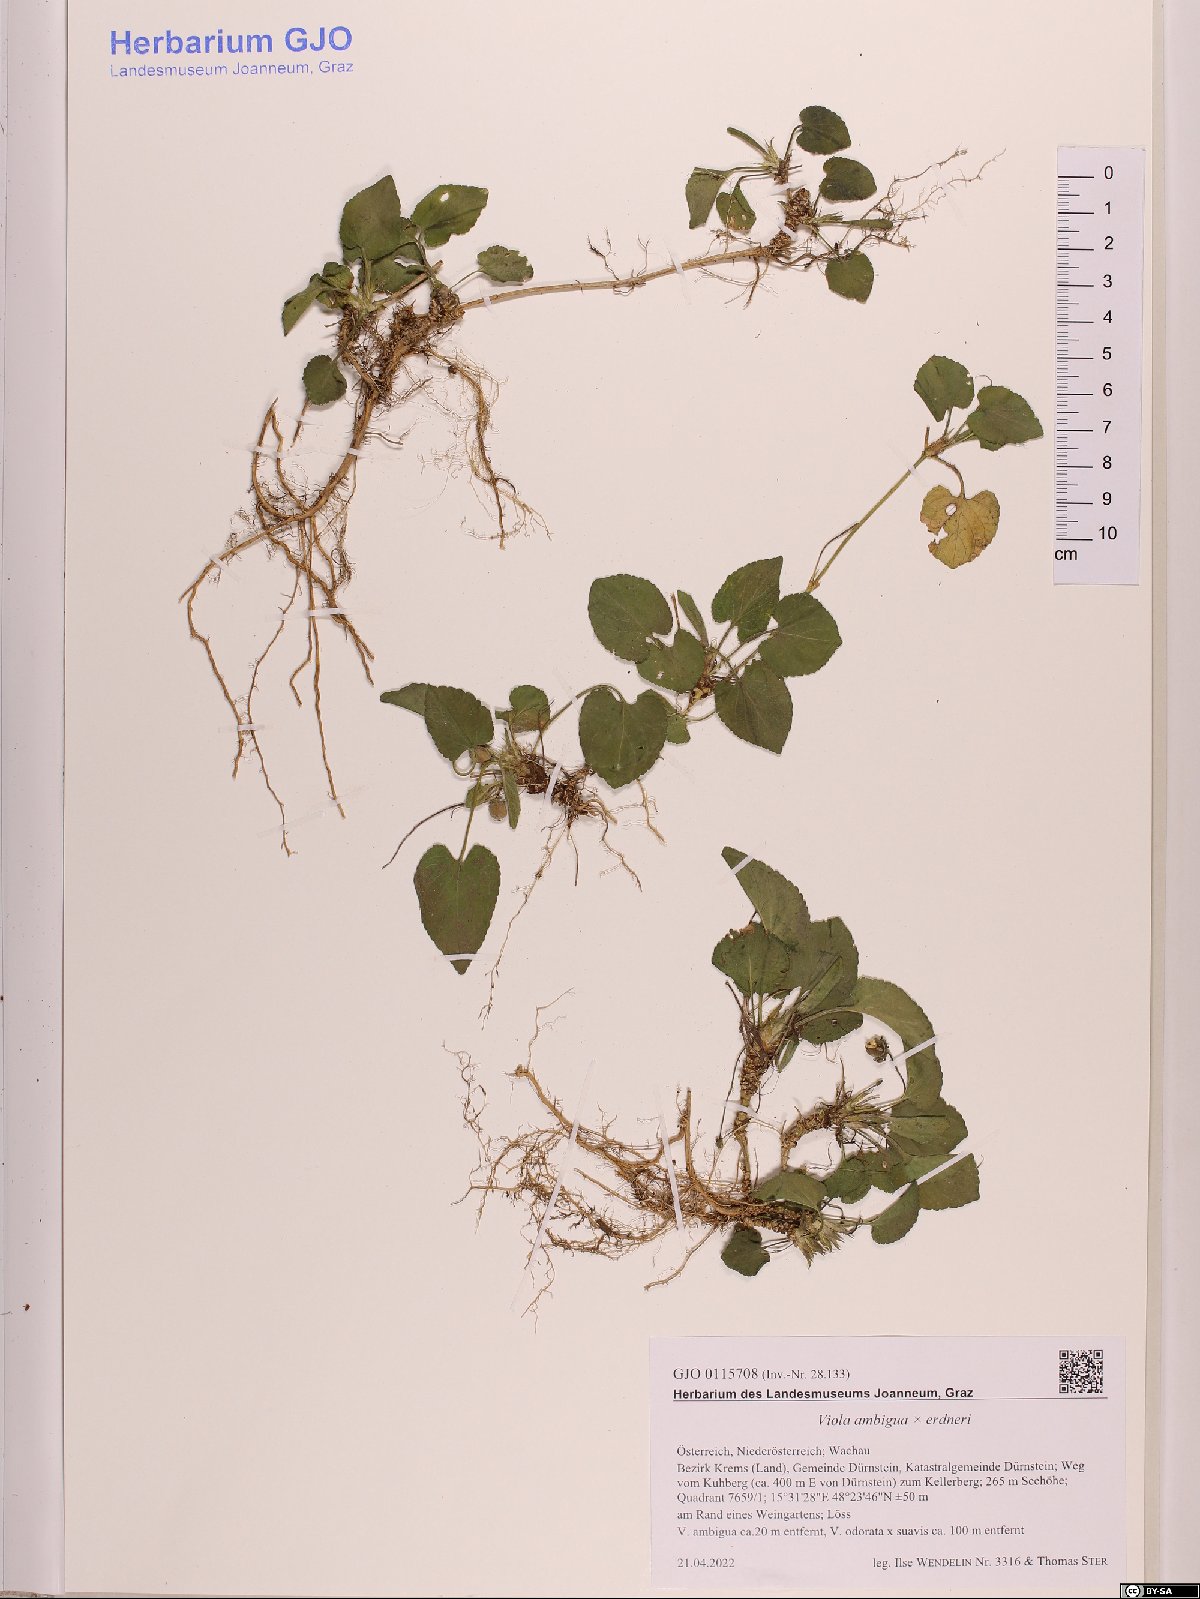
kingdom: Plantae
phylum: Tracheophyta
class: Magnoliopsida
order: Malpighiales
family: Violaceae
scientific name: Violaceae
